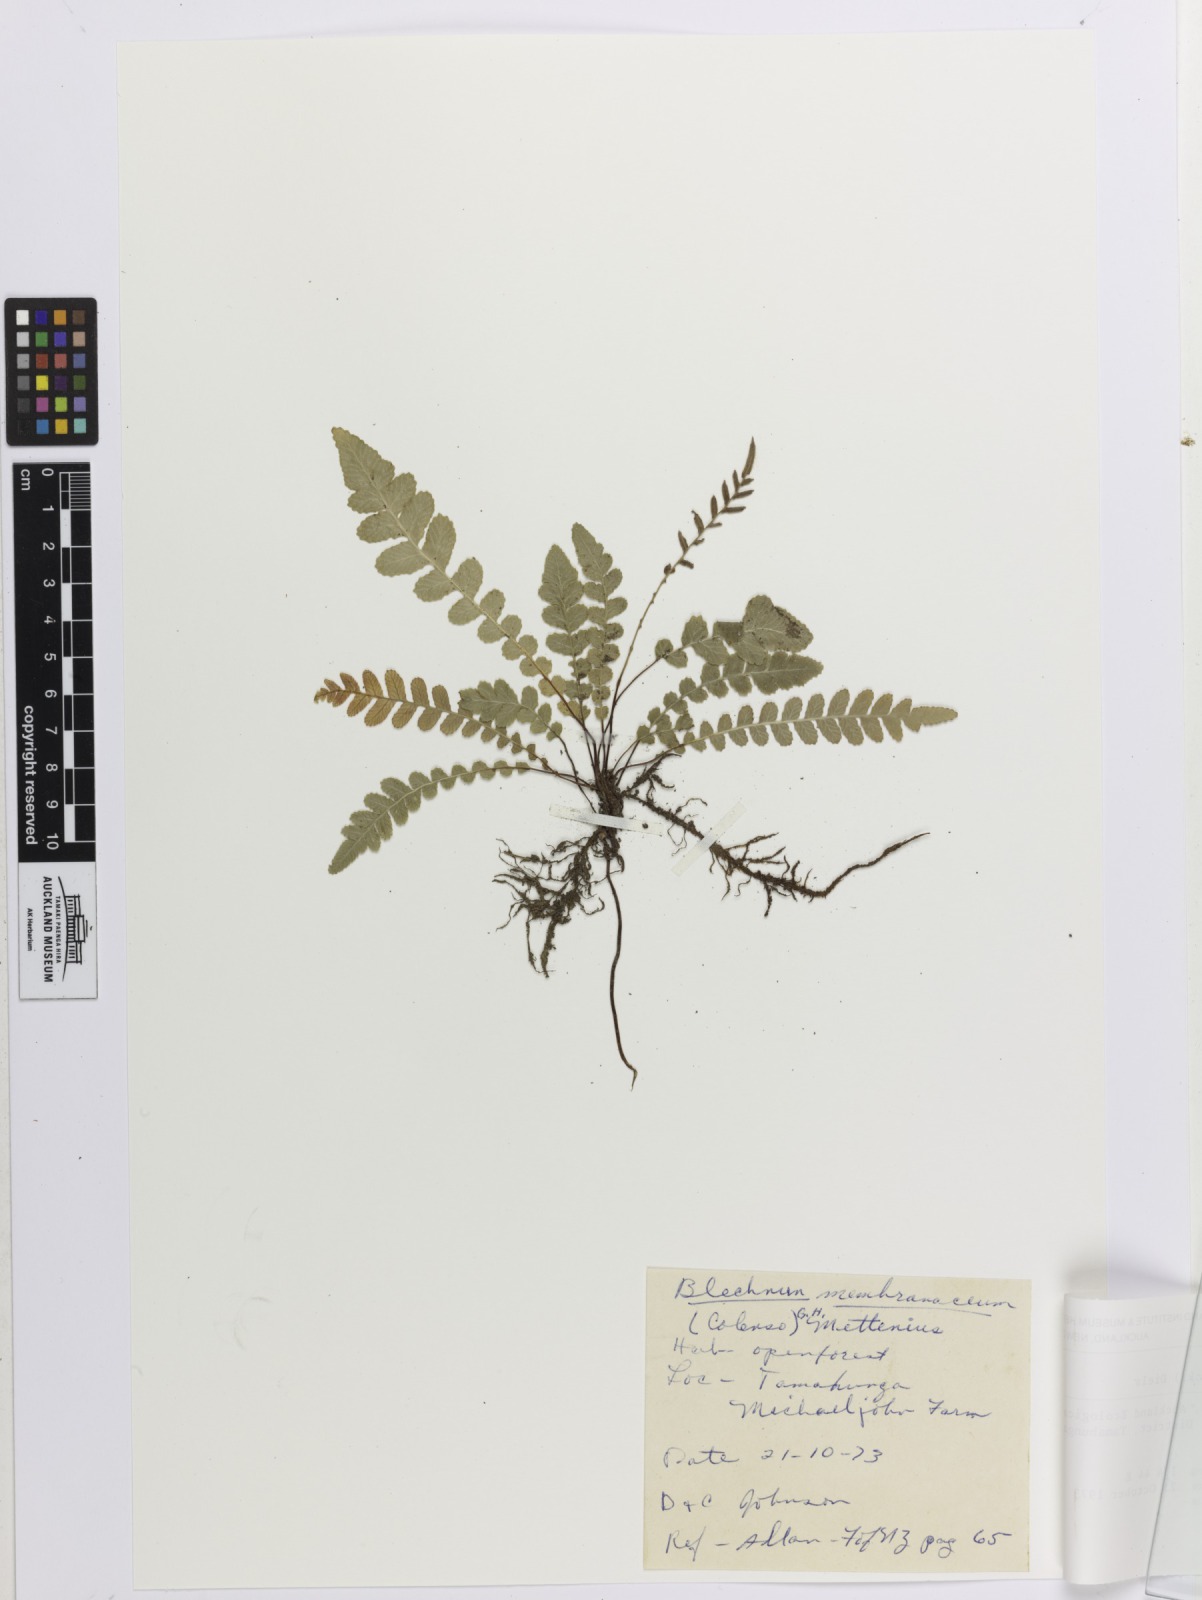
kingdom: Plantae
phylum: Tracheophyta
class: Polypodiopsida
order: Polypodiales
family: Blechnaceae
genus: Austroblechnum
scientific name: Austroblechnum membranaceum
